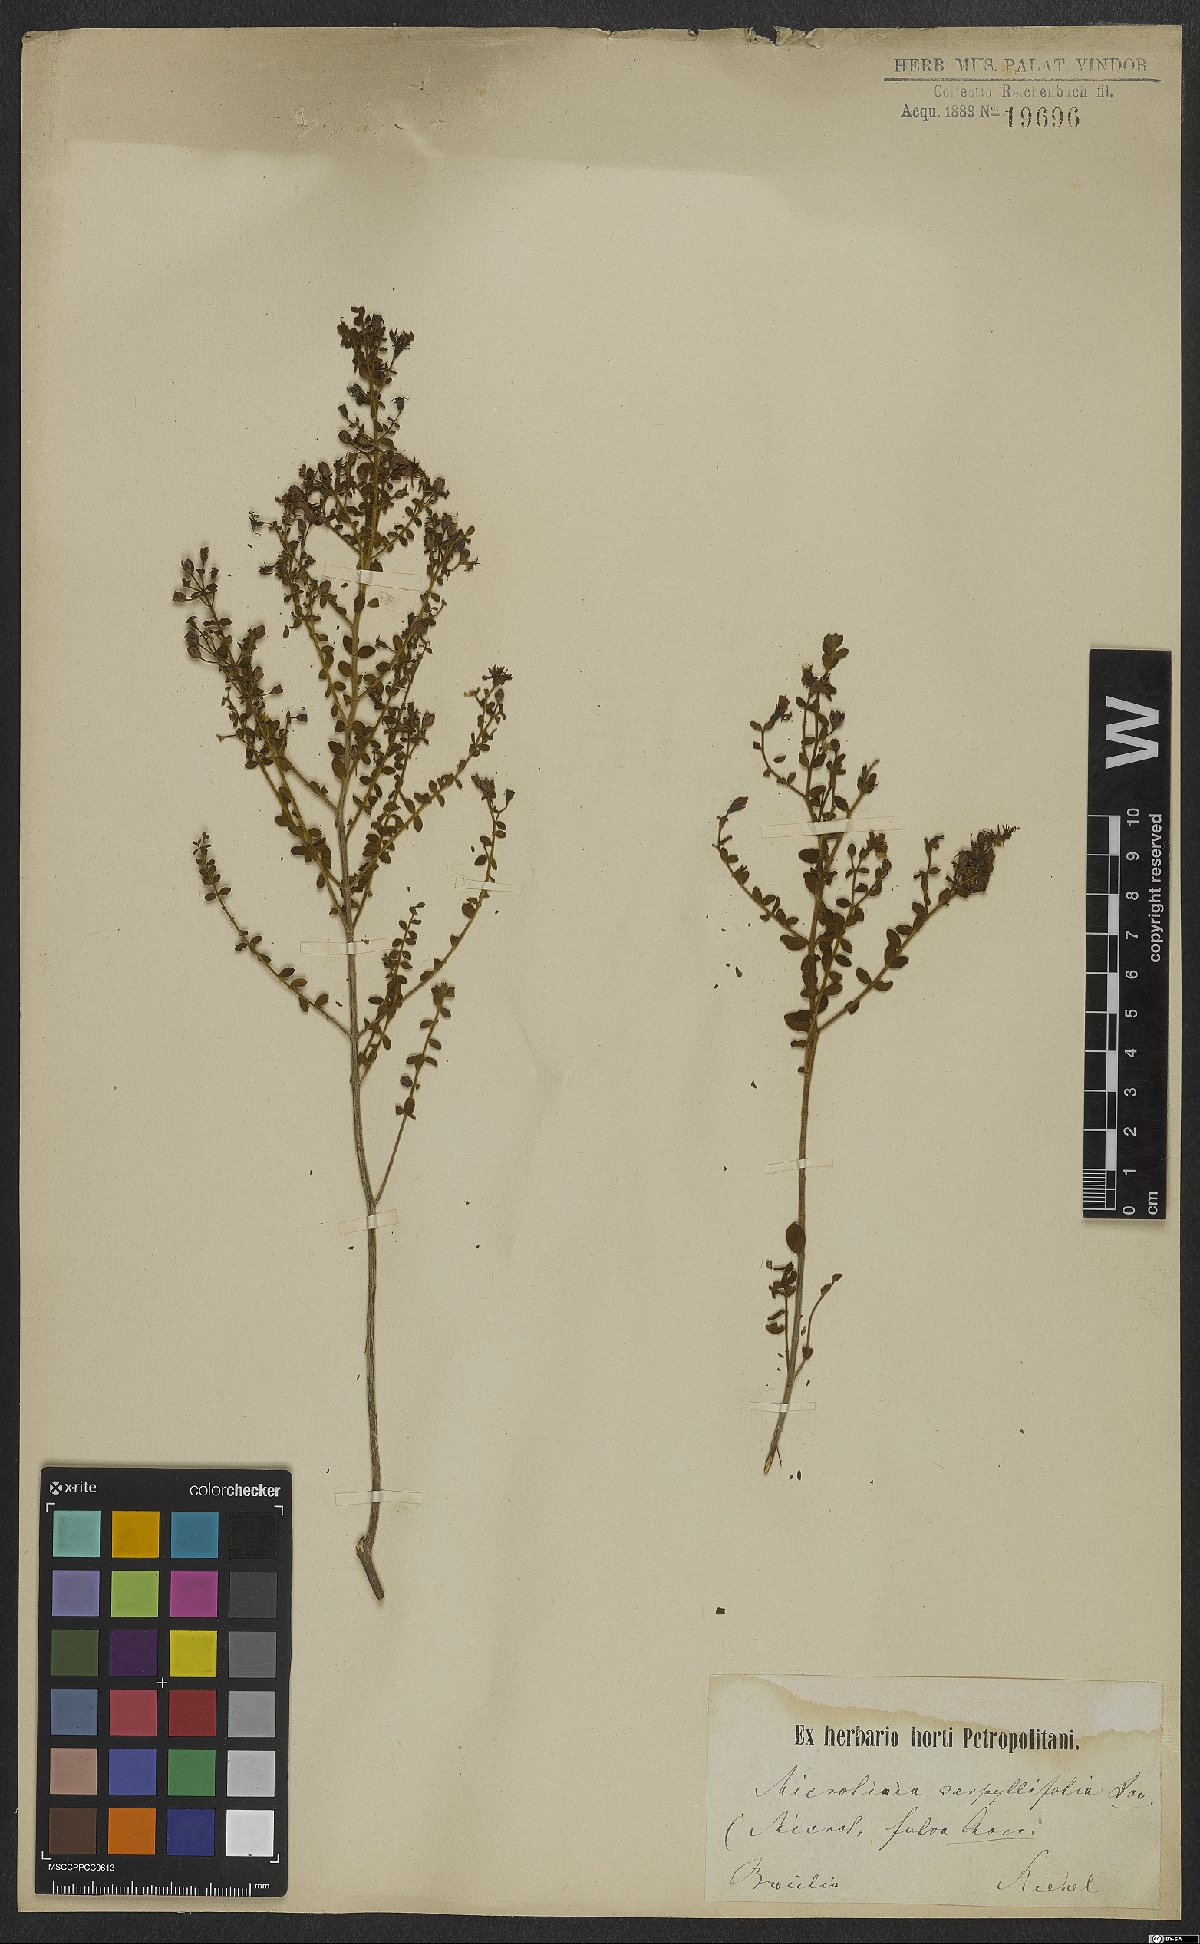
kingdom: Plantae
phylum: Tracheophyta
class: Magnoliopsida
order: Myrtales
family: Melastomataceae
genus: Microlicia
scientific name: Microlicia fulva
